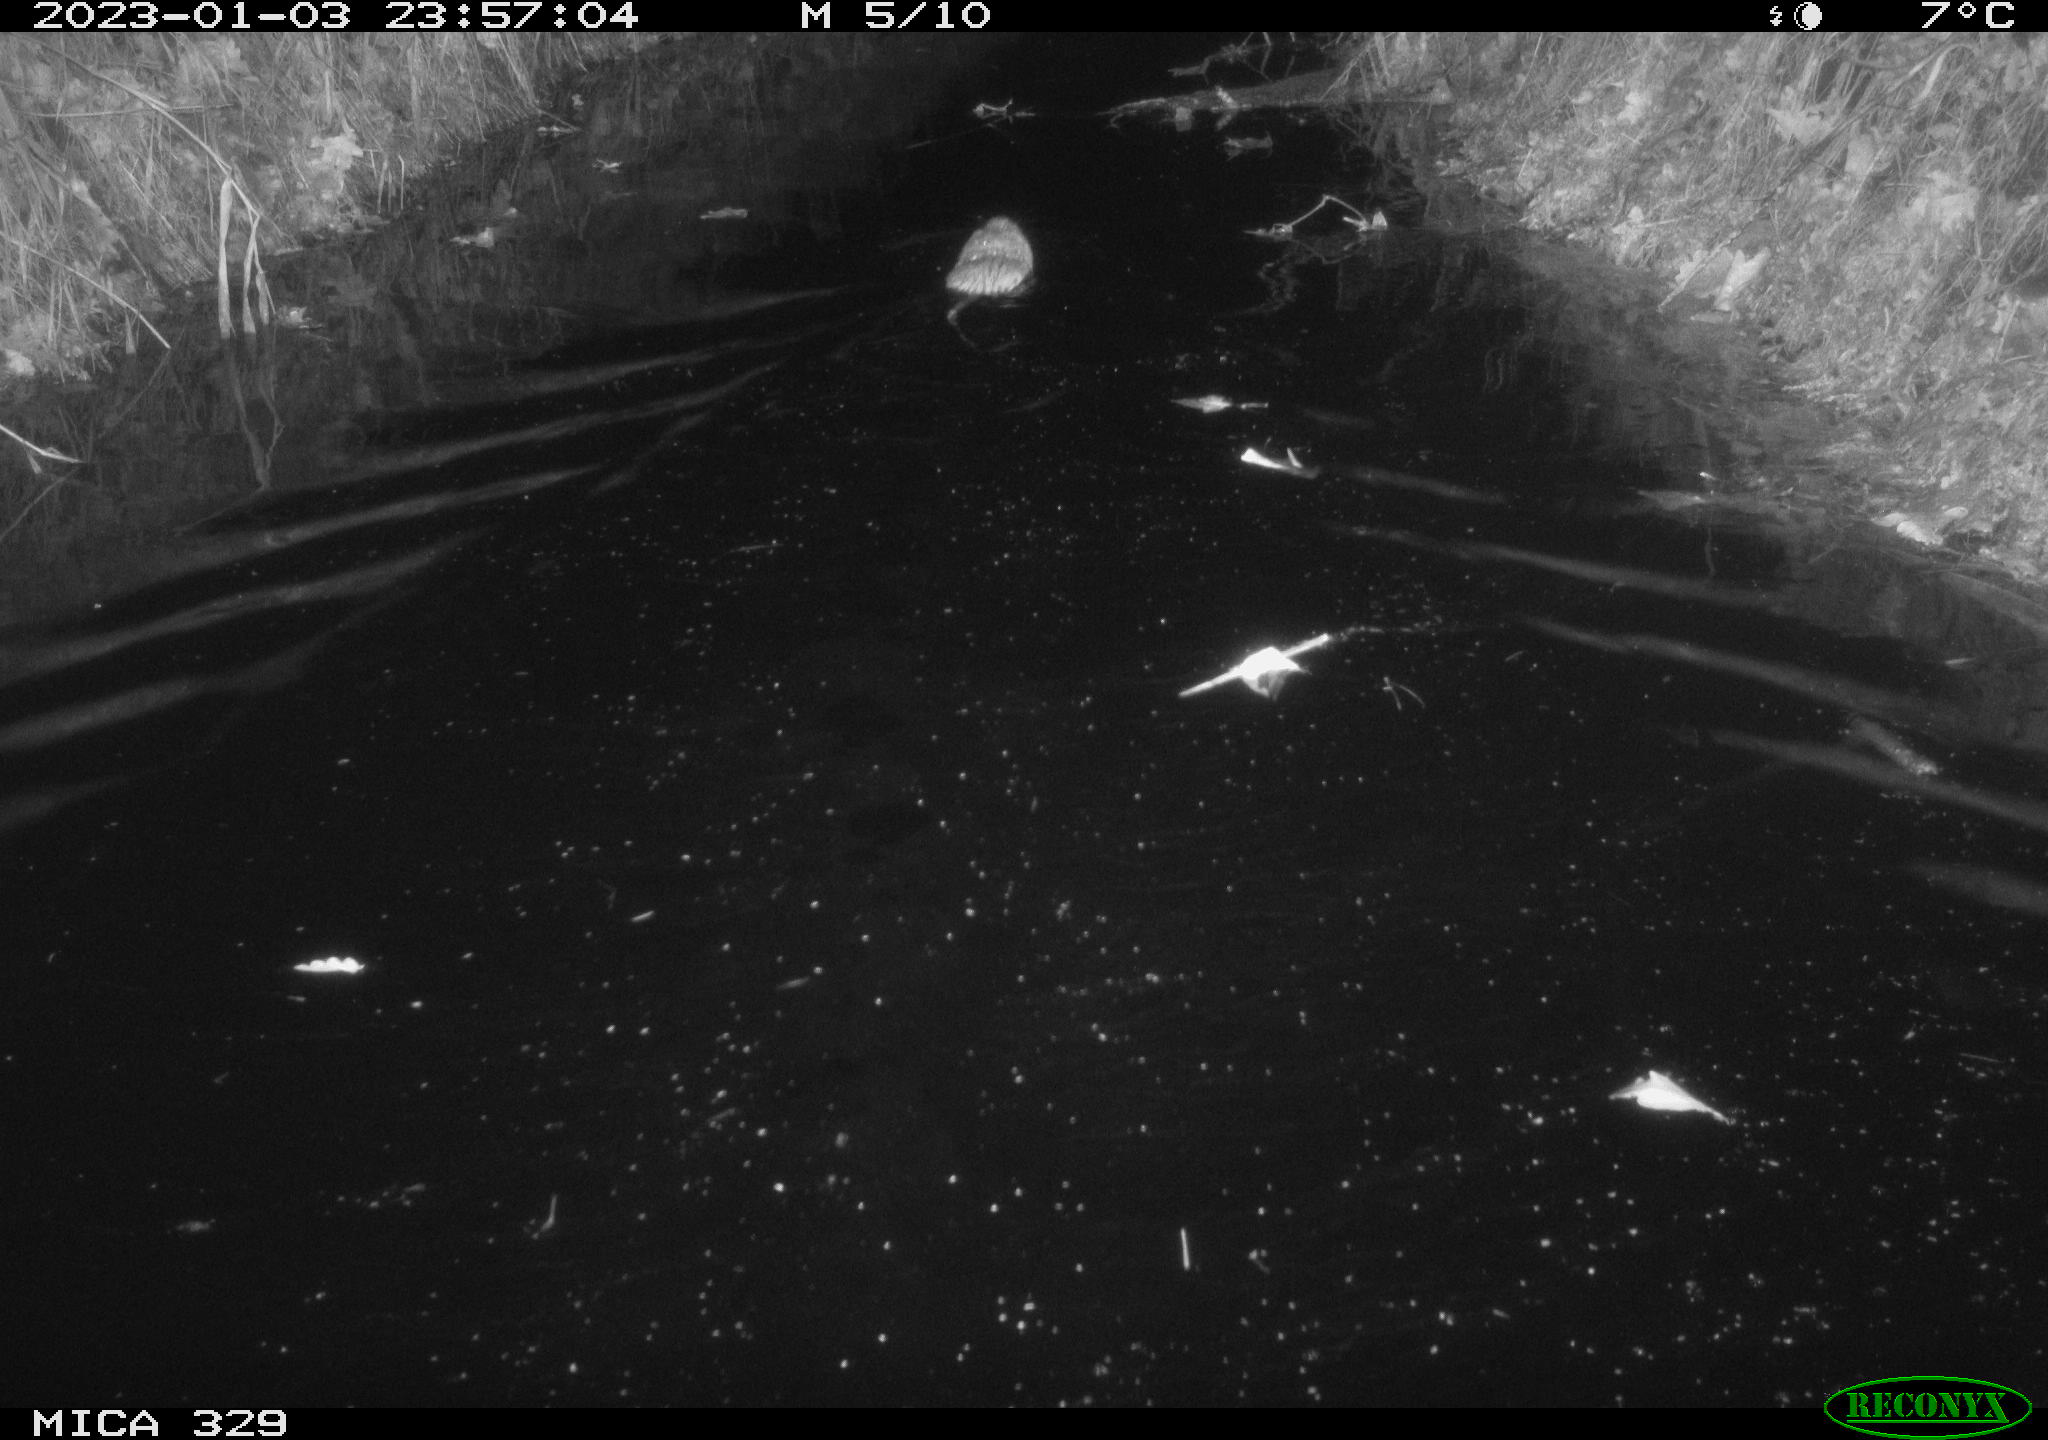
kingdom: Animalia
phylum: Chordata
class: Mammalia
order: Rodentia
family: Cricetidae
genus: Ondatra
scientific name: Ondatra zibethicus
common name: Muskrat
